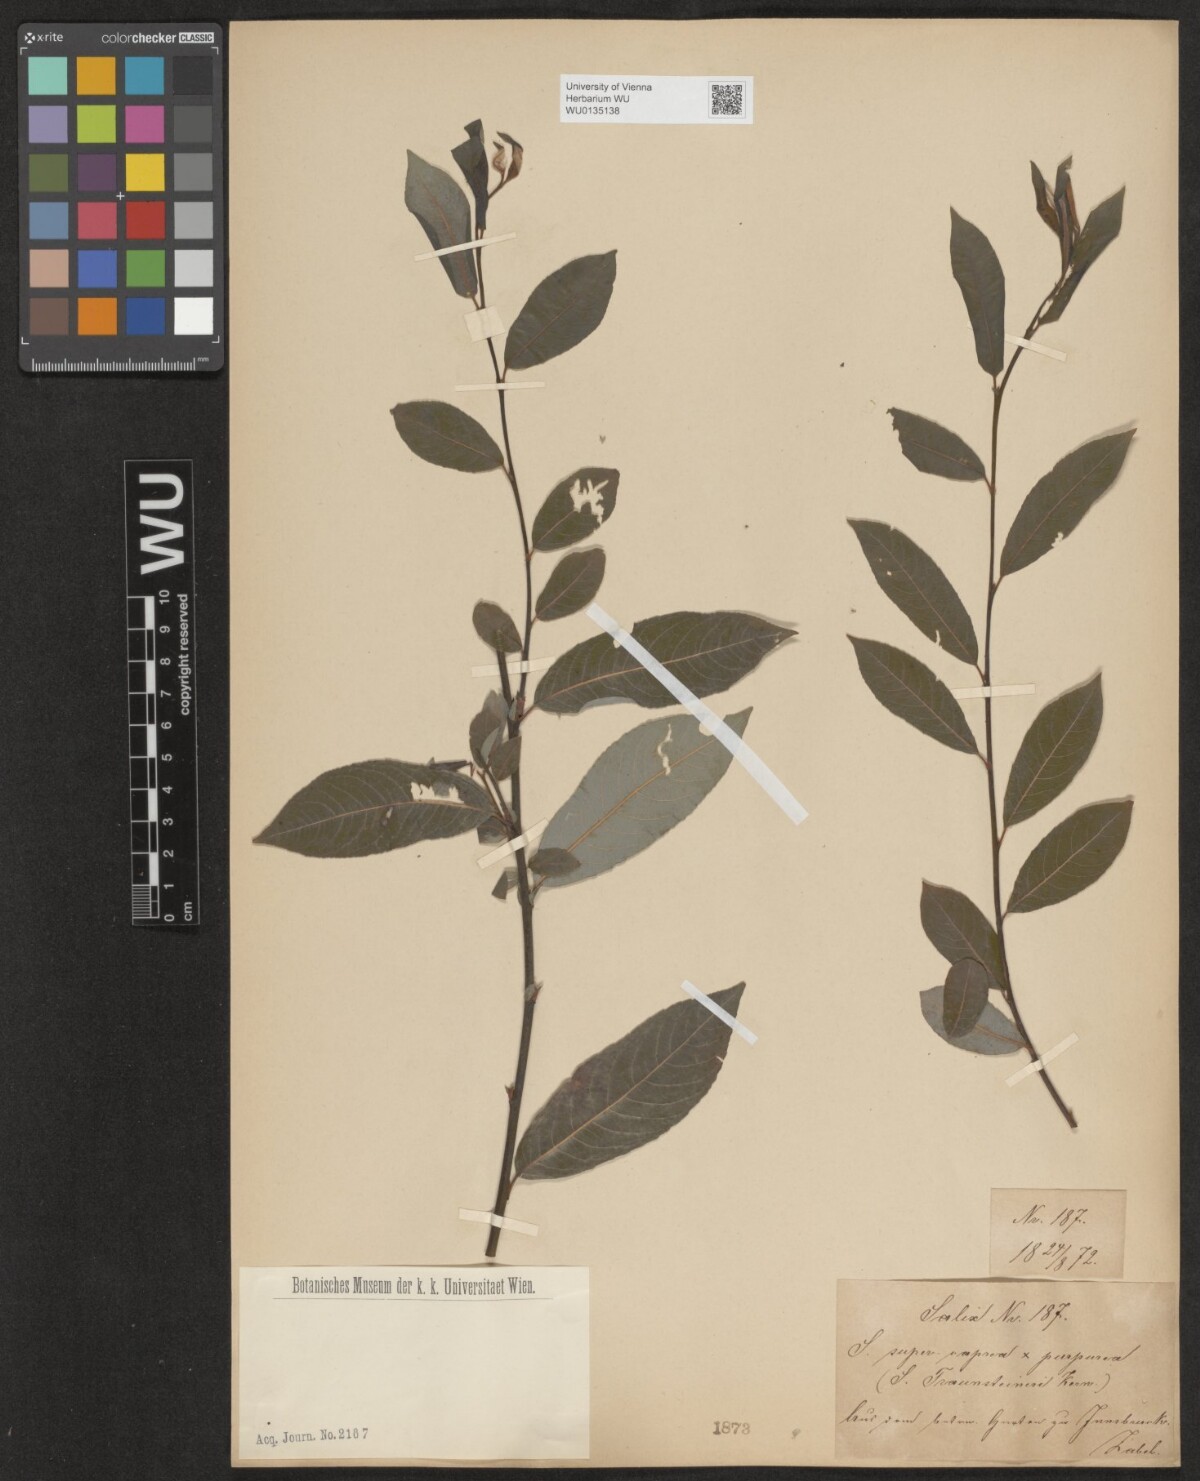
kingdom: Plantae
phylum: Tracheophyta
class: Magnoliopsida
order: Malpighiales
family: Salicaceae
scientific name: Salicaceae
